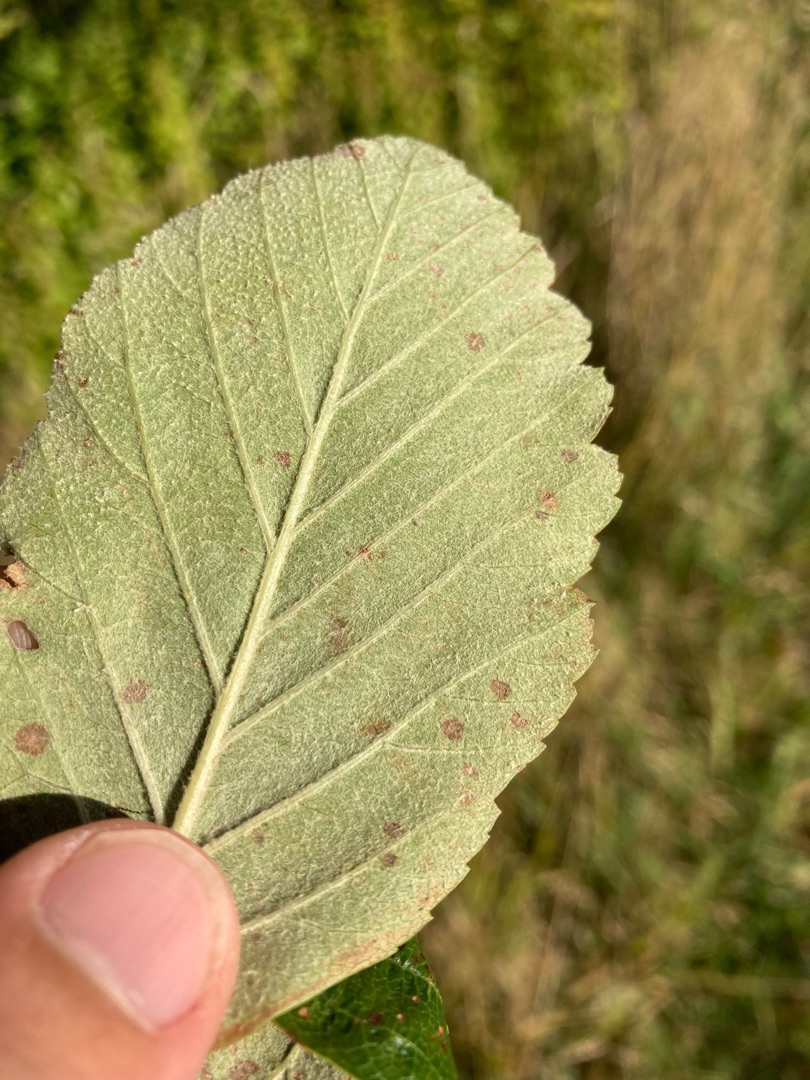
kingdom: Plantae
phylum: Tracheophyta
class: Magnoliopsida
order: Rosales
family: Rosaceae
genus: Aria
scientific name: Aria edulis
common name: Aksel-røn
